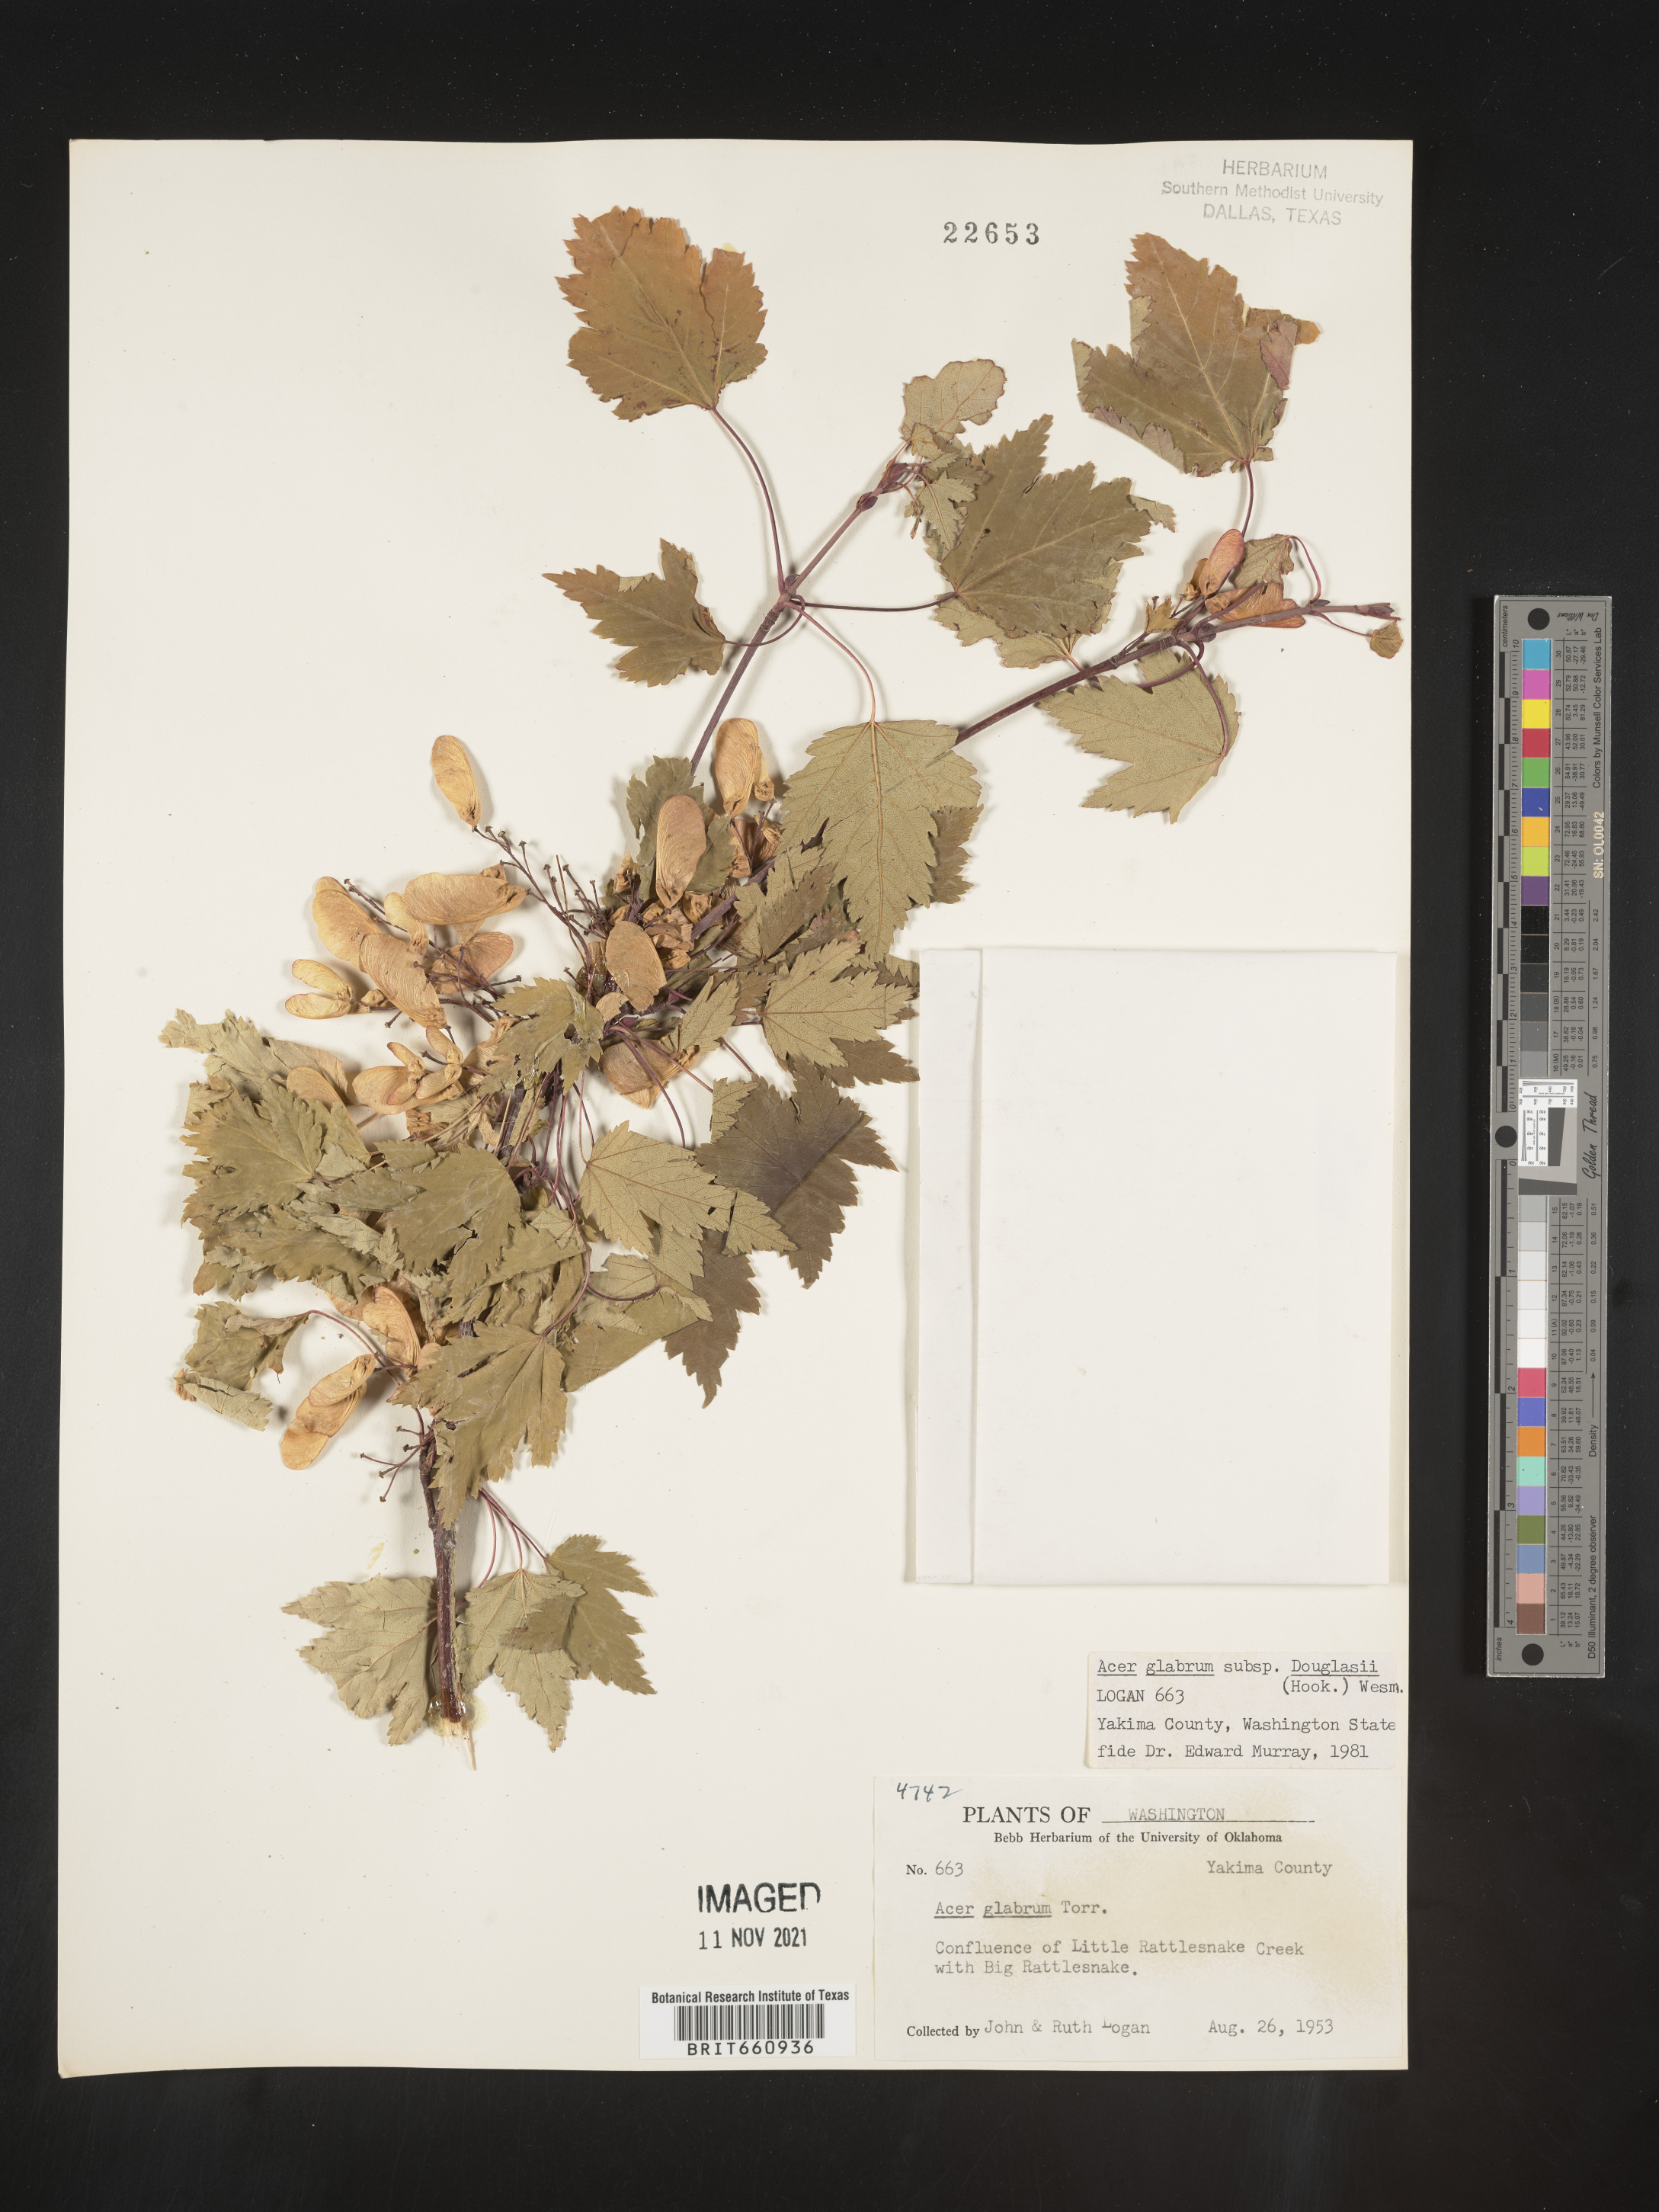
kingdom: Plantae
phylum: Tracheophyta
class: Magnoliopsida
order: Sapindales
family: Sapindaceae
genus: Acer
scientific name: Acer glabrum
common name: Rocky mountain maple
